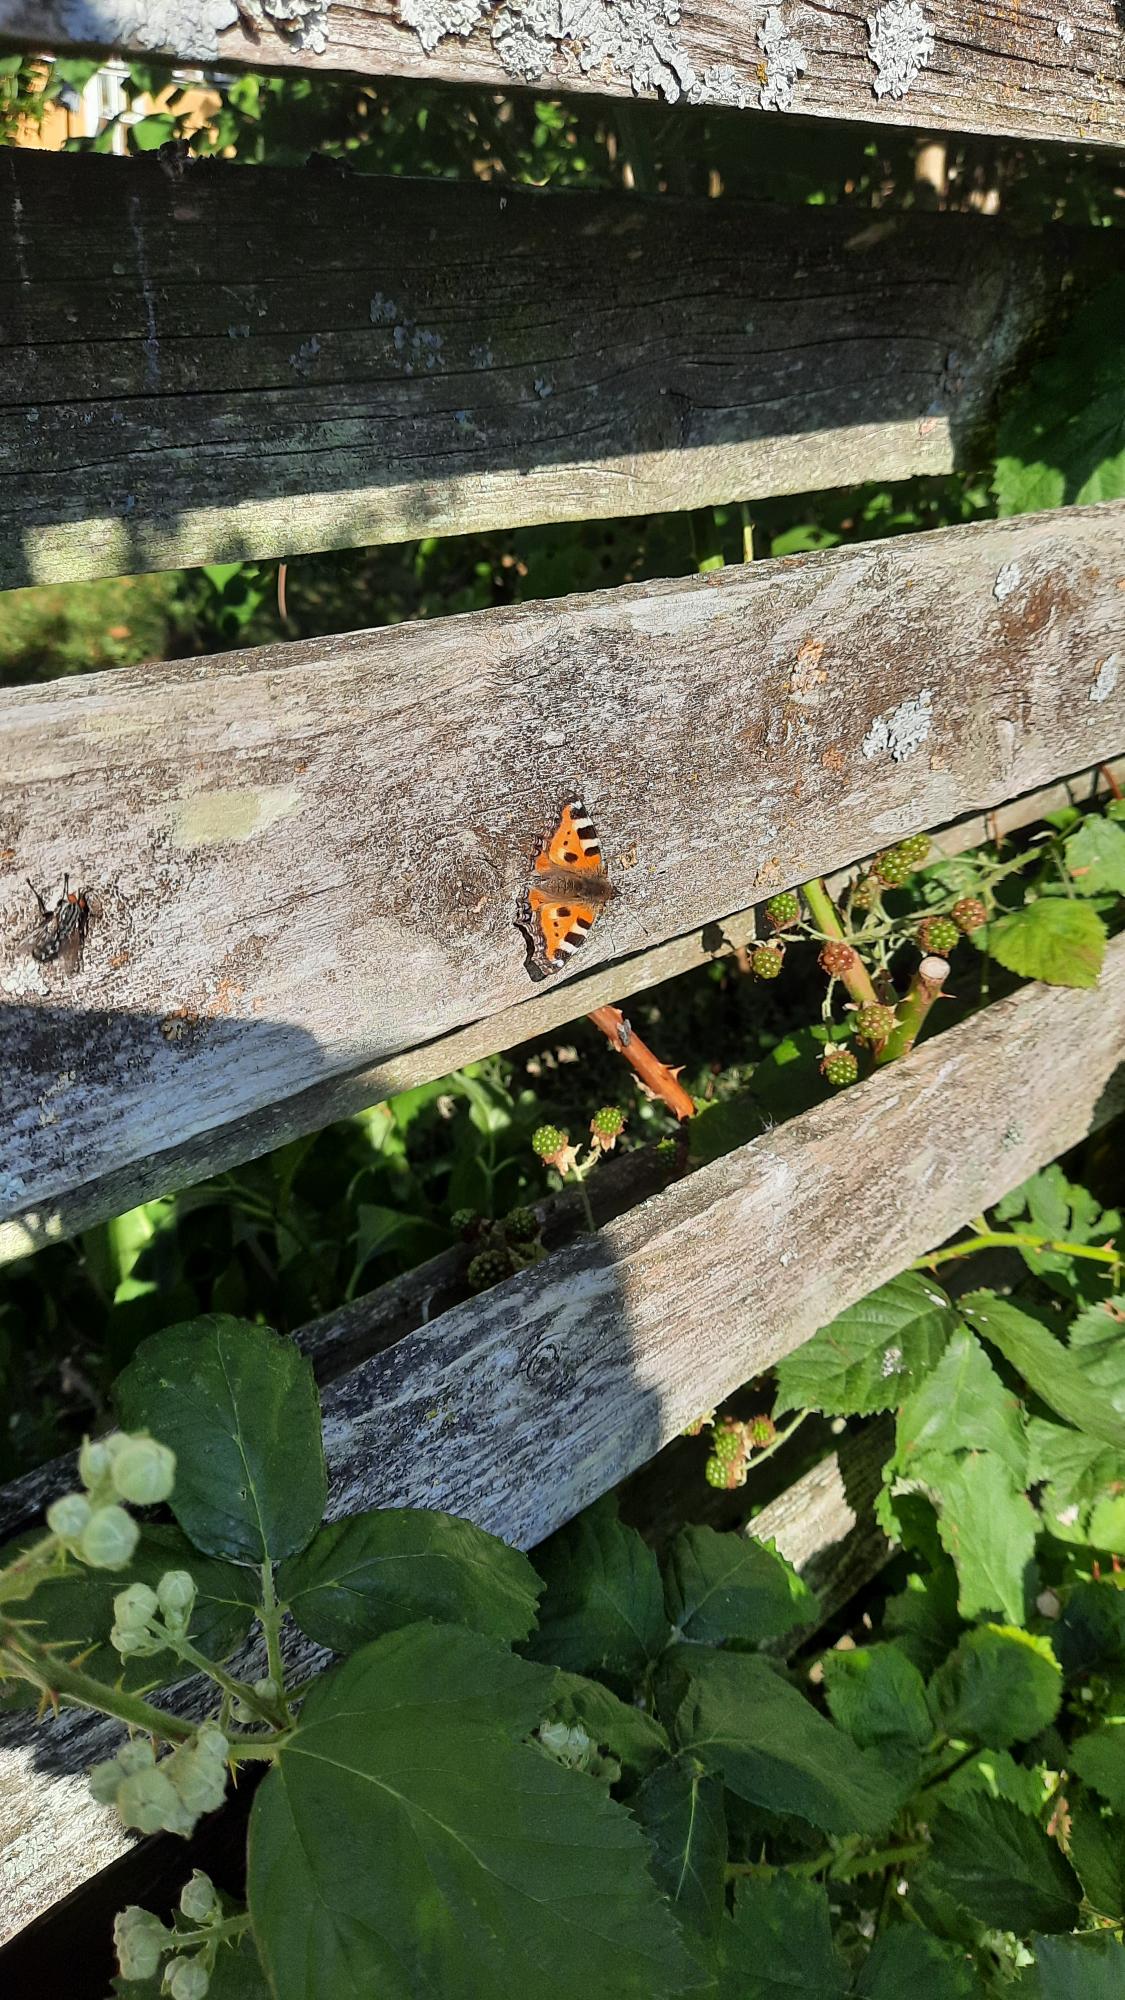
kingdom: Animalia
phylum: Arthropoda
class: Insecta
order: Lepidoptera
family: Nymphalidae
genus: Aglais
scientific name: Aglais urticae
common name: Nældens takvinge
